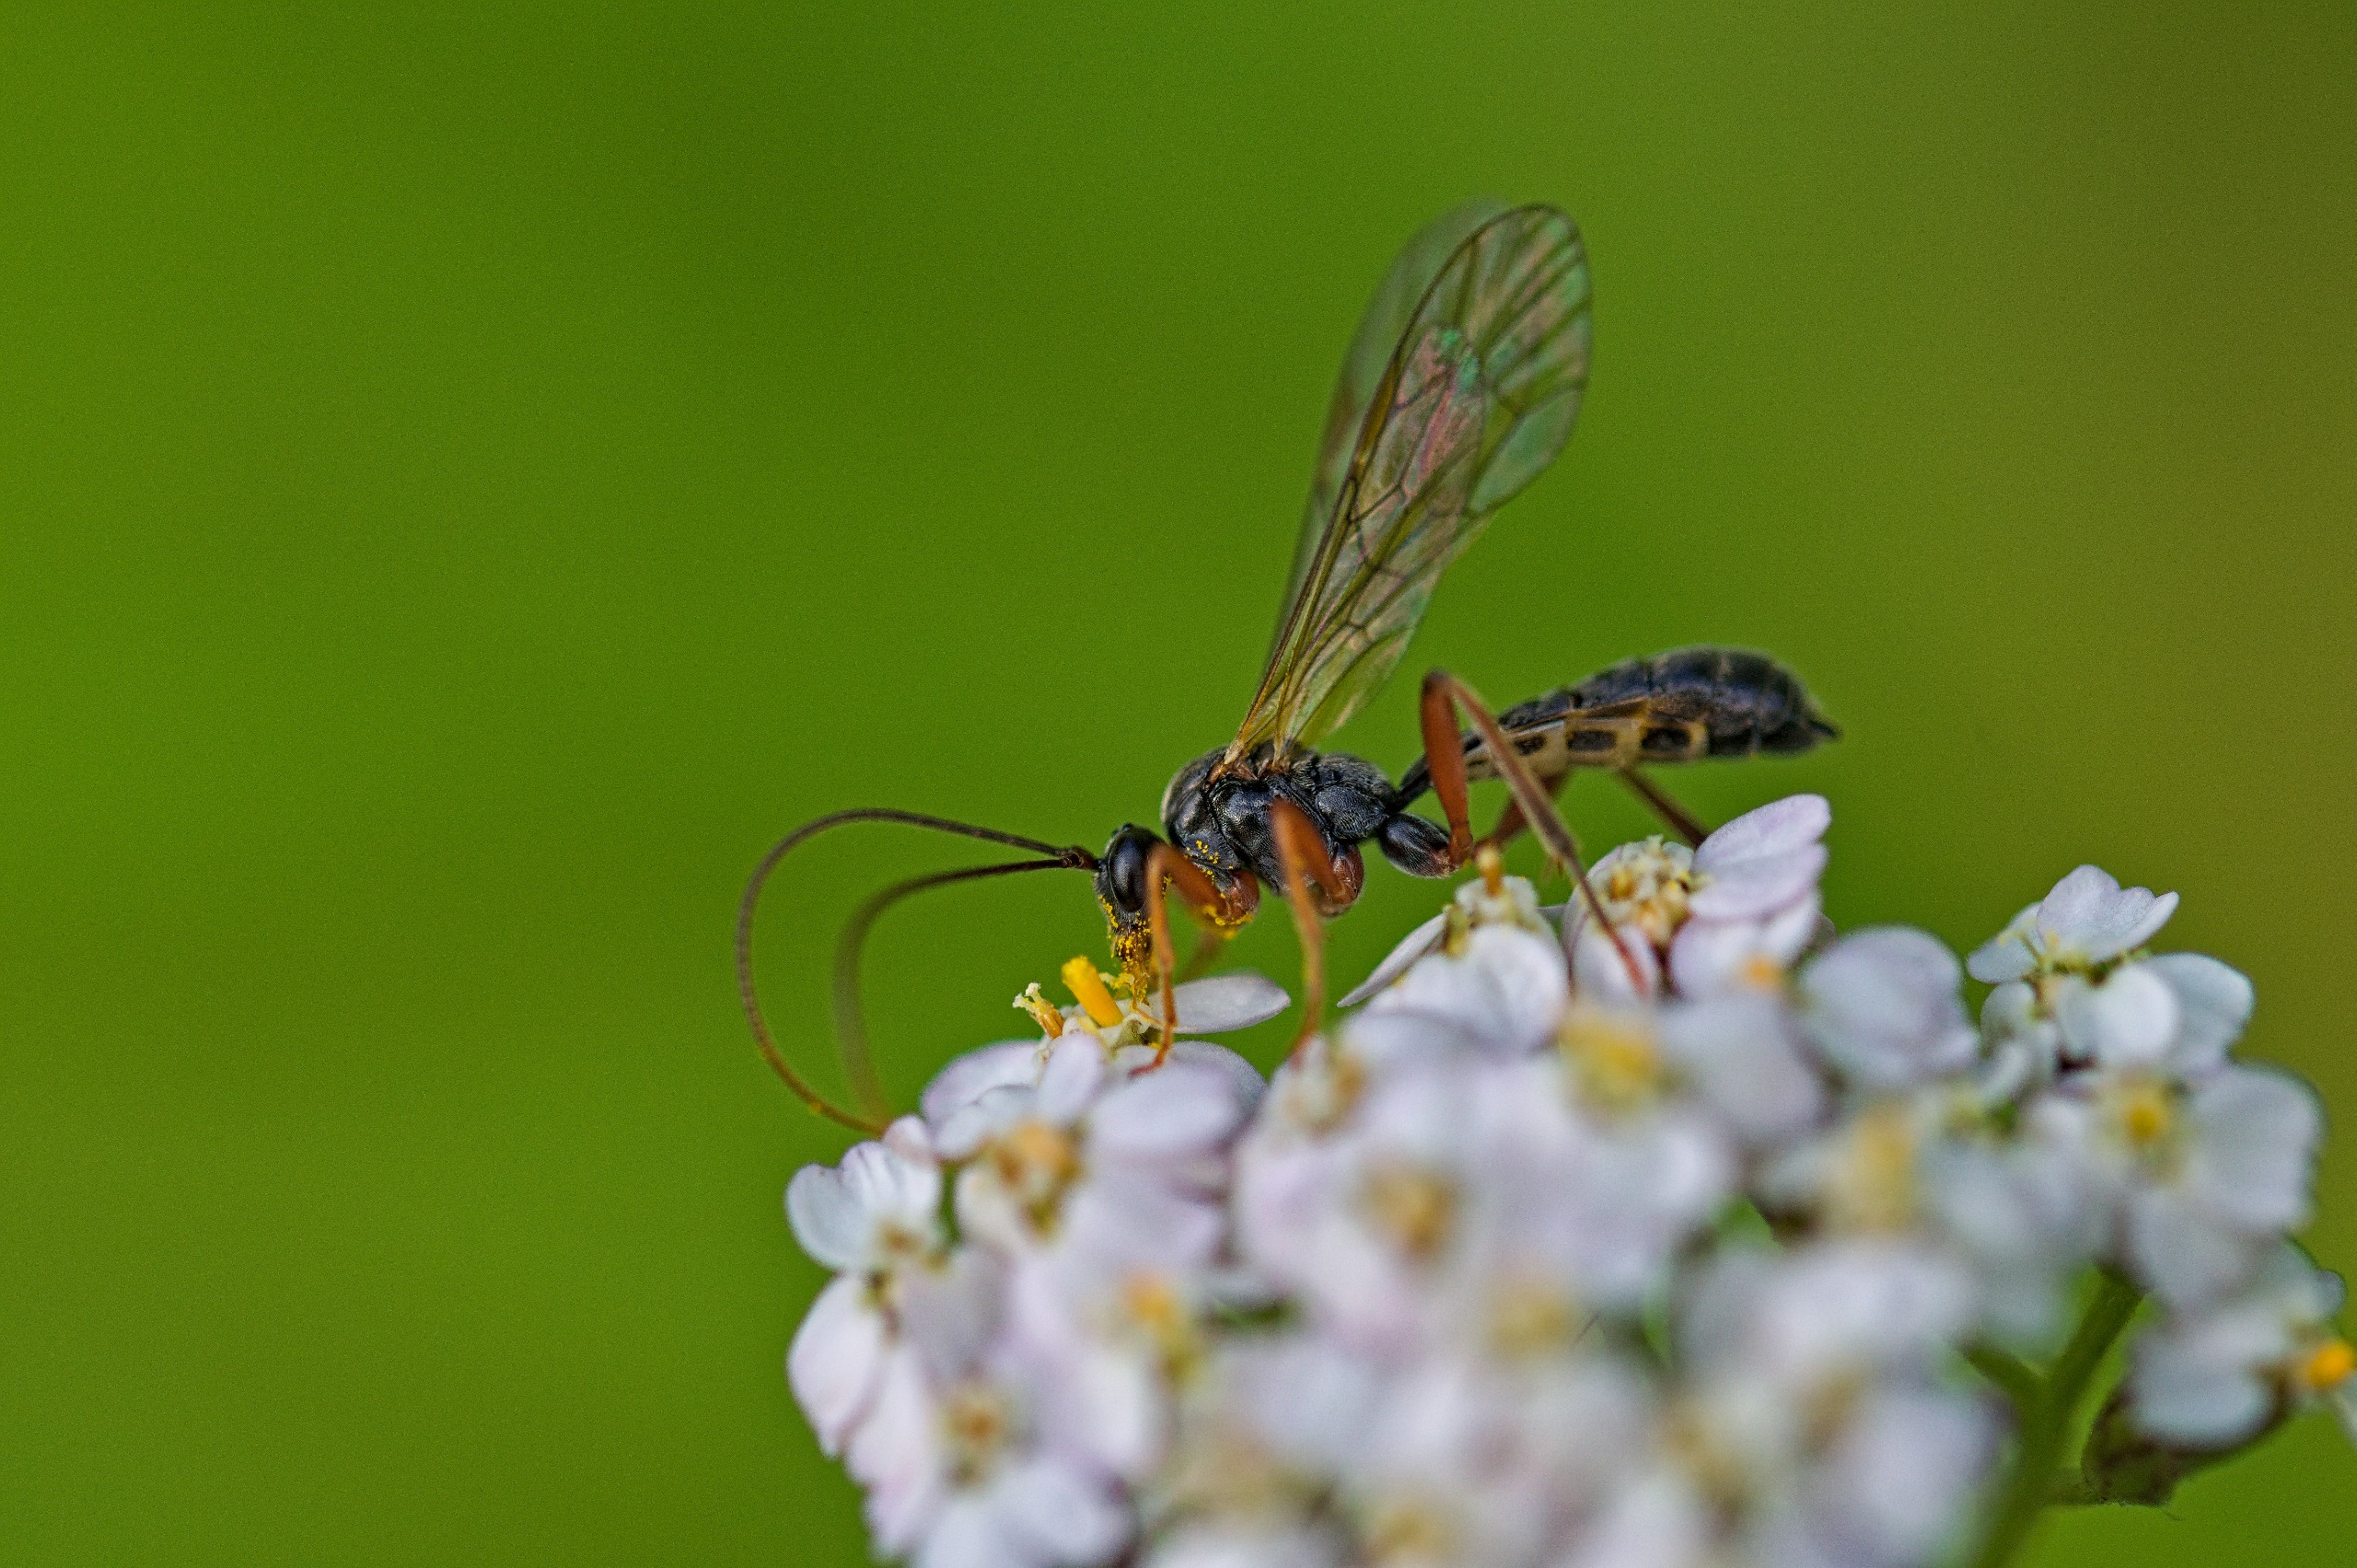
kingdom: Animalia
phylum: Arthropoda
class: Insecta
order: Hymenoptera
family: Ichneumonidae
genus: Dyspetes
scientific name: Dyspetes luteomarginatus
